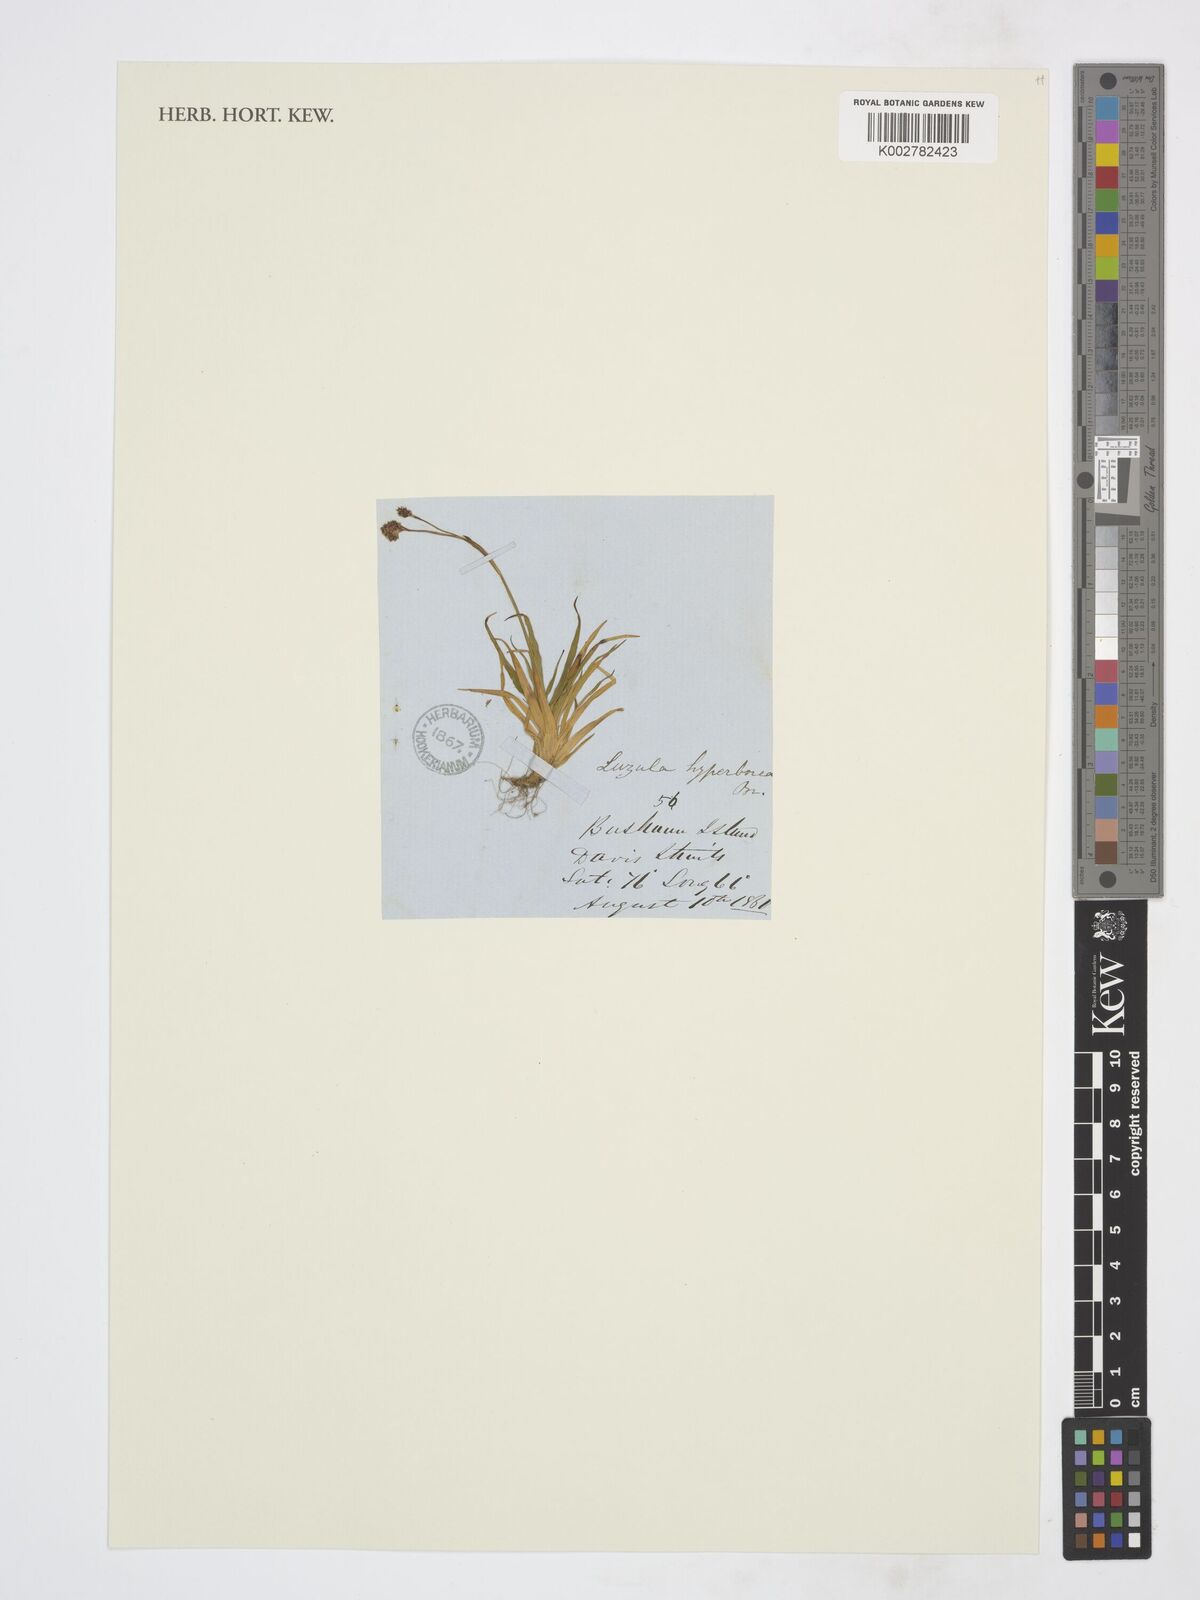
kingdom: Plantae
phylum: Tracheophyta
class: Liliopsida
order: Poales
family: Juncaceae
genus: Luzula
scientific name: Luzula confusa
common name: Northern wood rush
